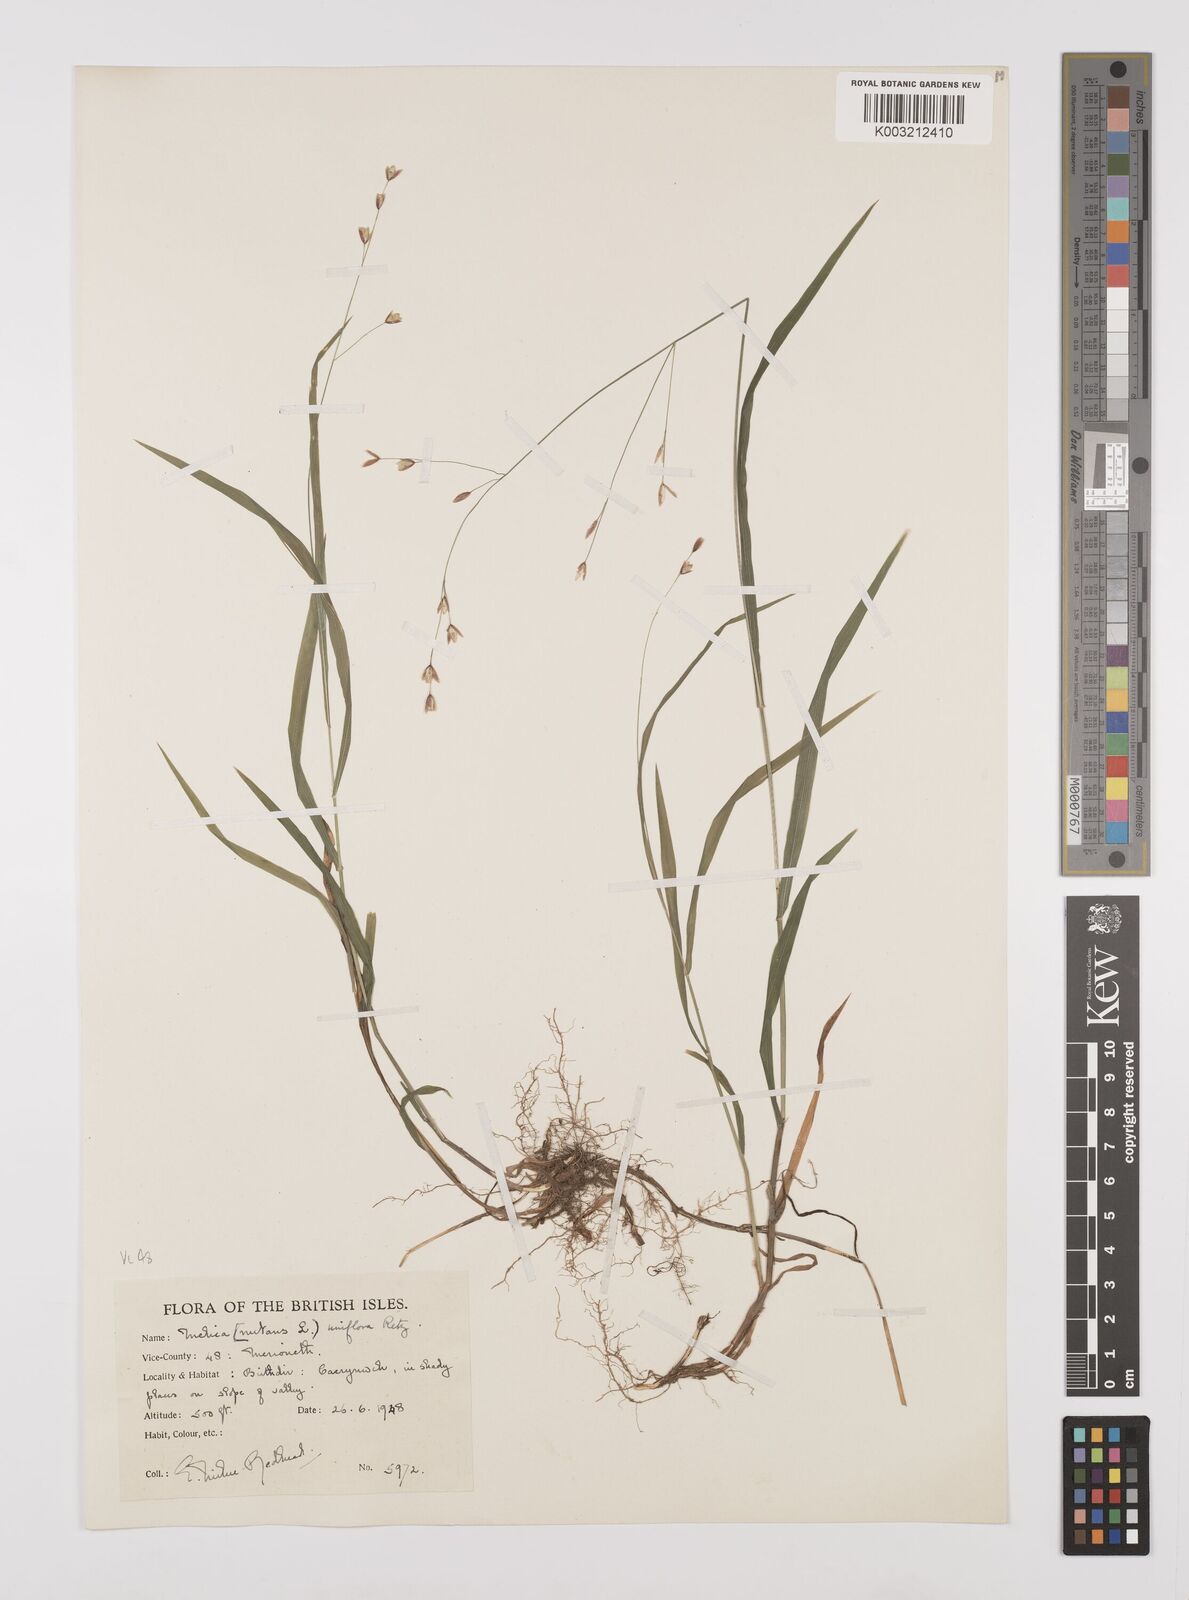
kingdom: Plantae
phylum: Tracheophyta
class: Liliopsida
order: Poales
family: Poaceae
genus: Melica
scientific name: Melica uniflora
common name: Wood melick
